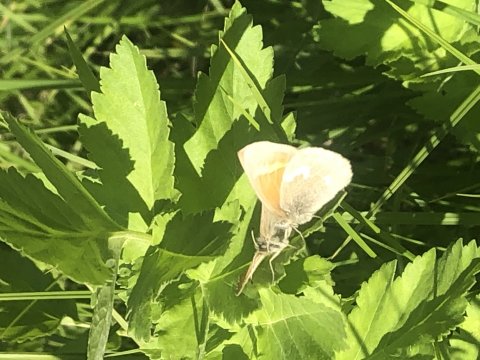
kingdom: Animalia
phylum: Arthropoda
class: Insecta
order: Lepidoptera
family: Nymphalidae
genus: Coenonympha
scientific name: Coenonympha california
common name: California Ringlet
